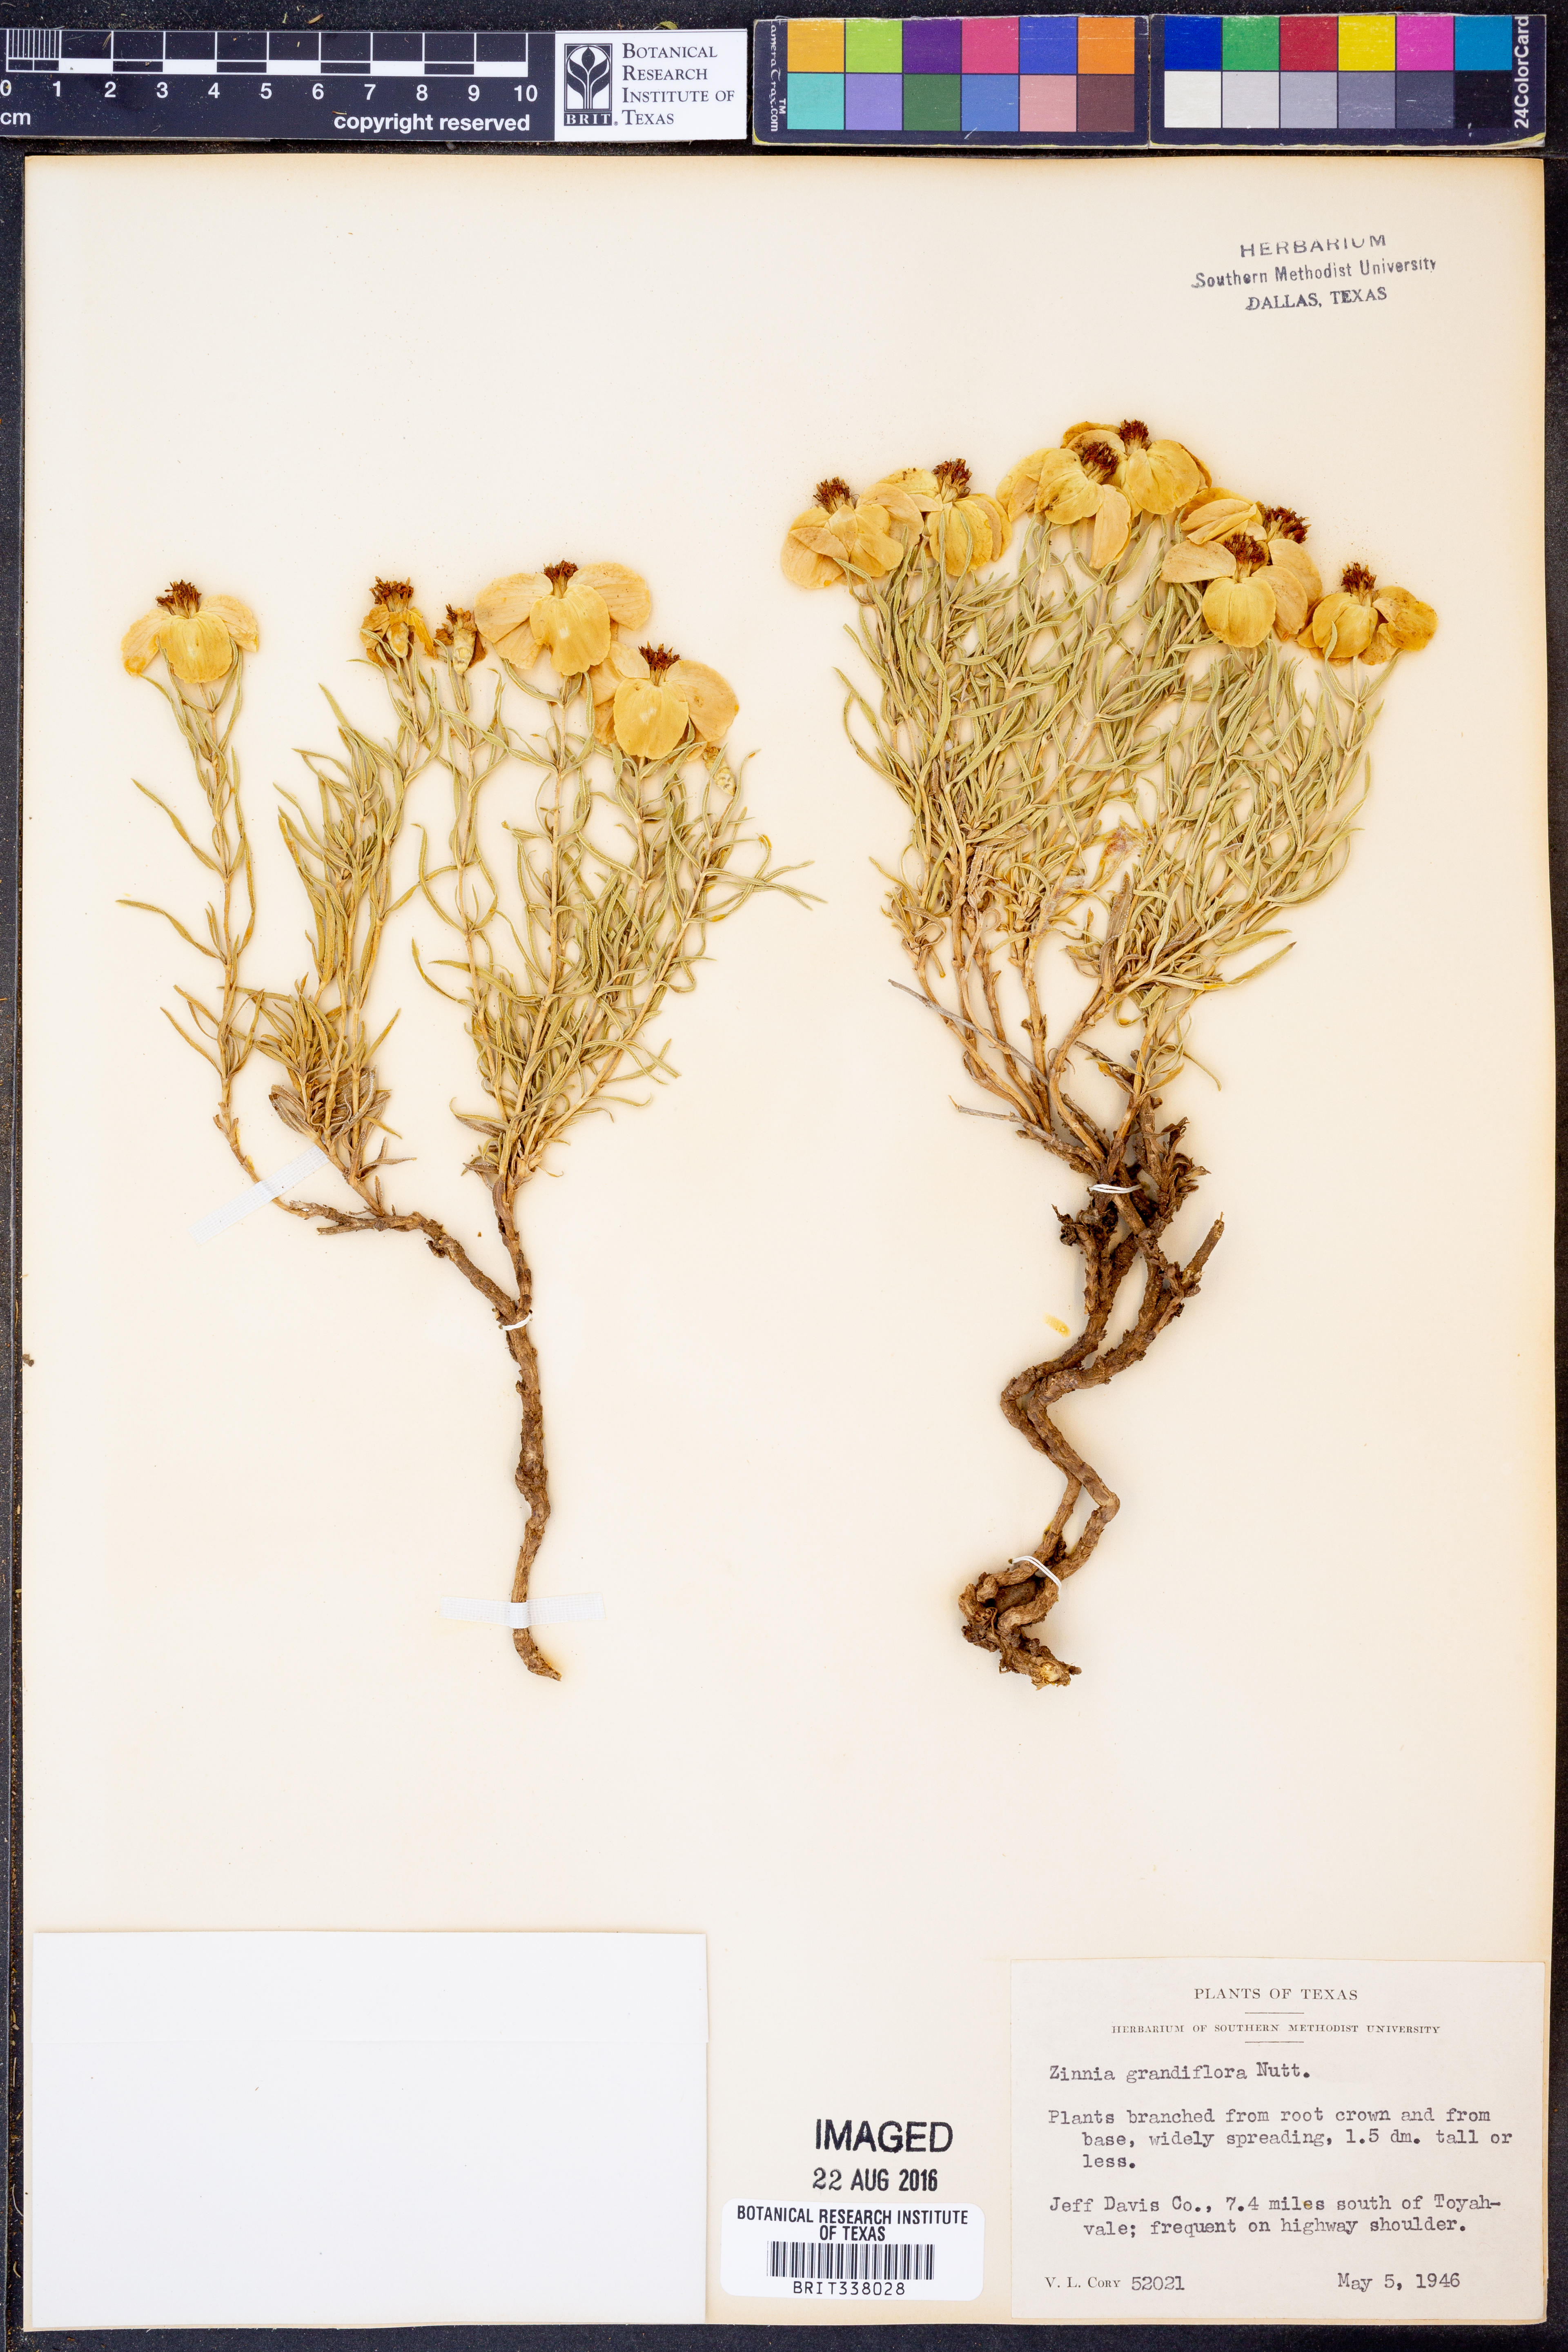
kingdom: Plantae
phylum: Tracheophyta
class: Magnoliopsida
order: Asterales
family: Asteraceae
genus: Zinnia
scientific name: Zinnia grandiflora
